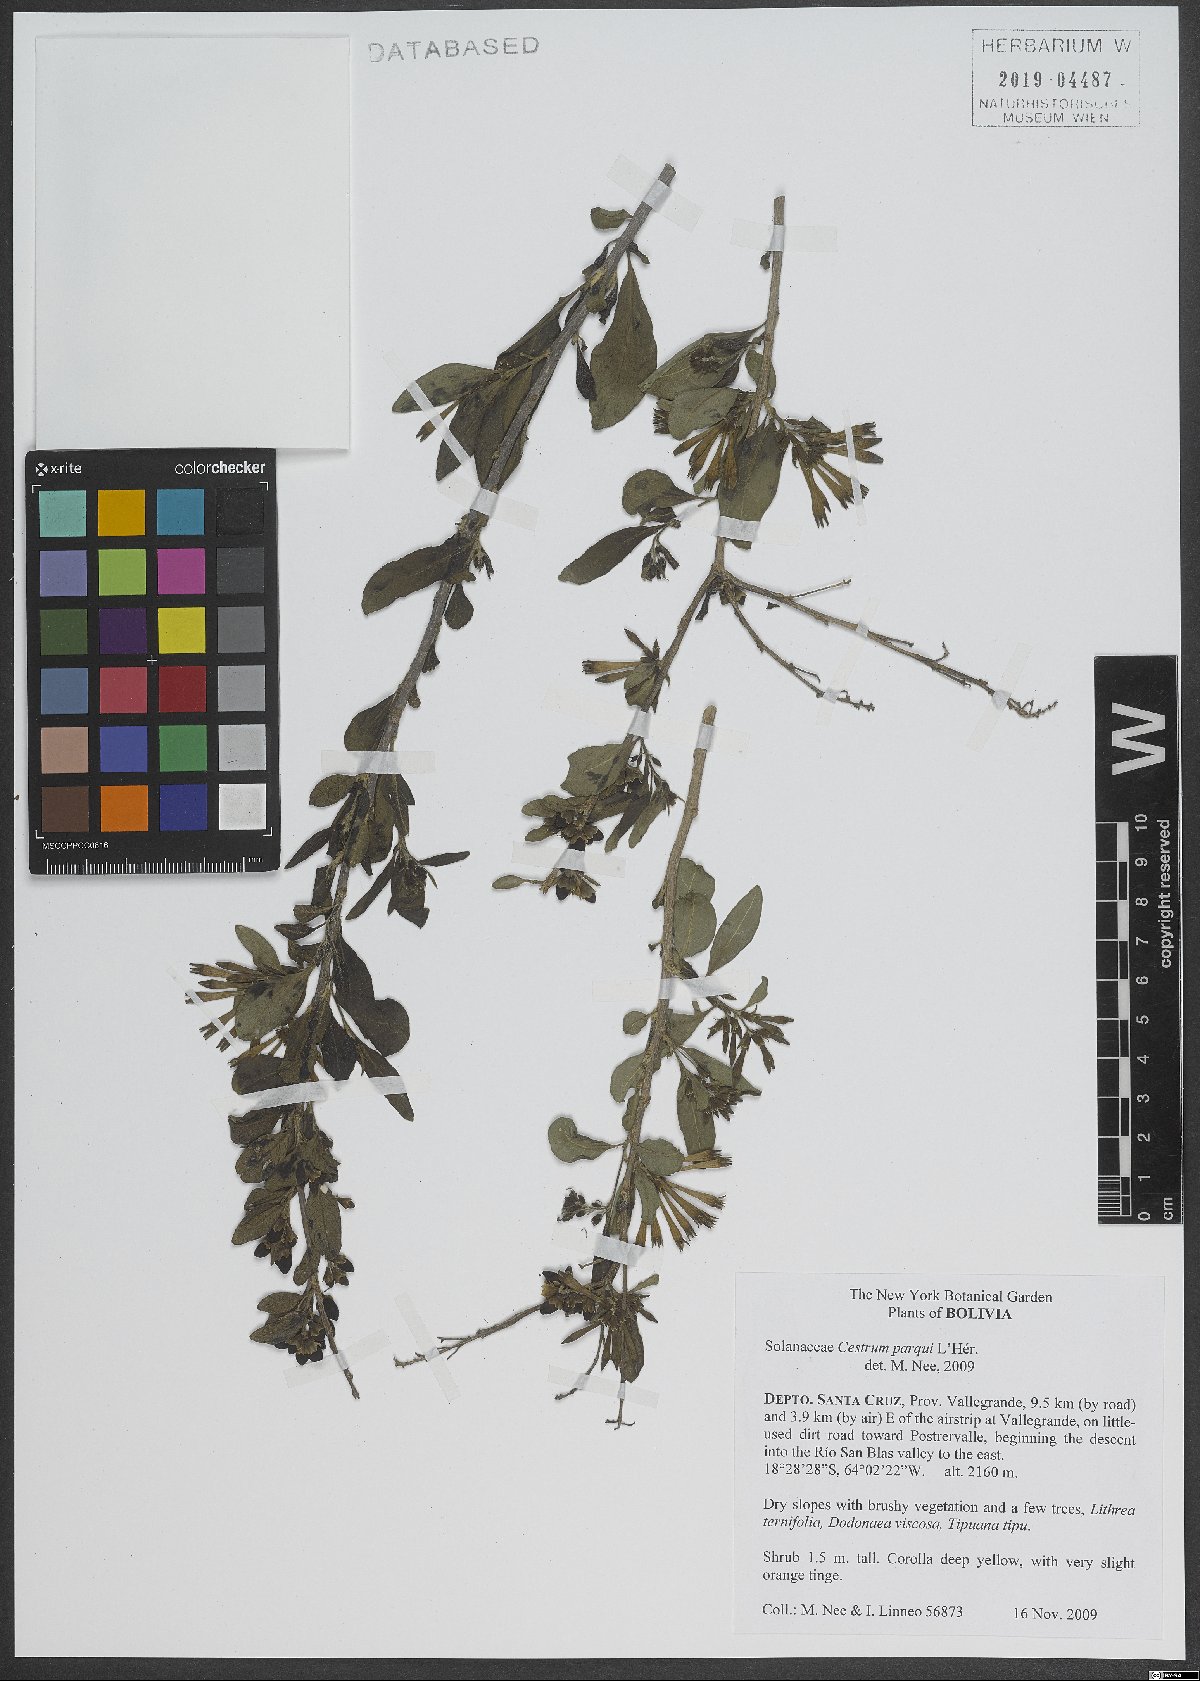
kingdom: Plantae
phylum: Tracheophyta
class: Magnoliopsida
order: Solanales
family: Solanaceae
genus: Cestrum
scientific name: Cestrum thyrsoideum
